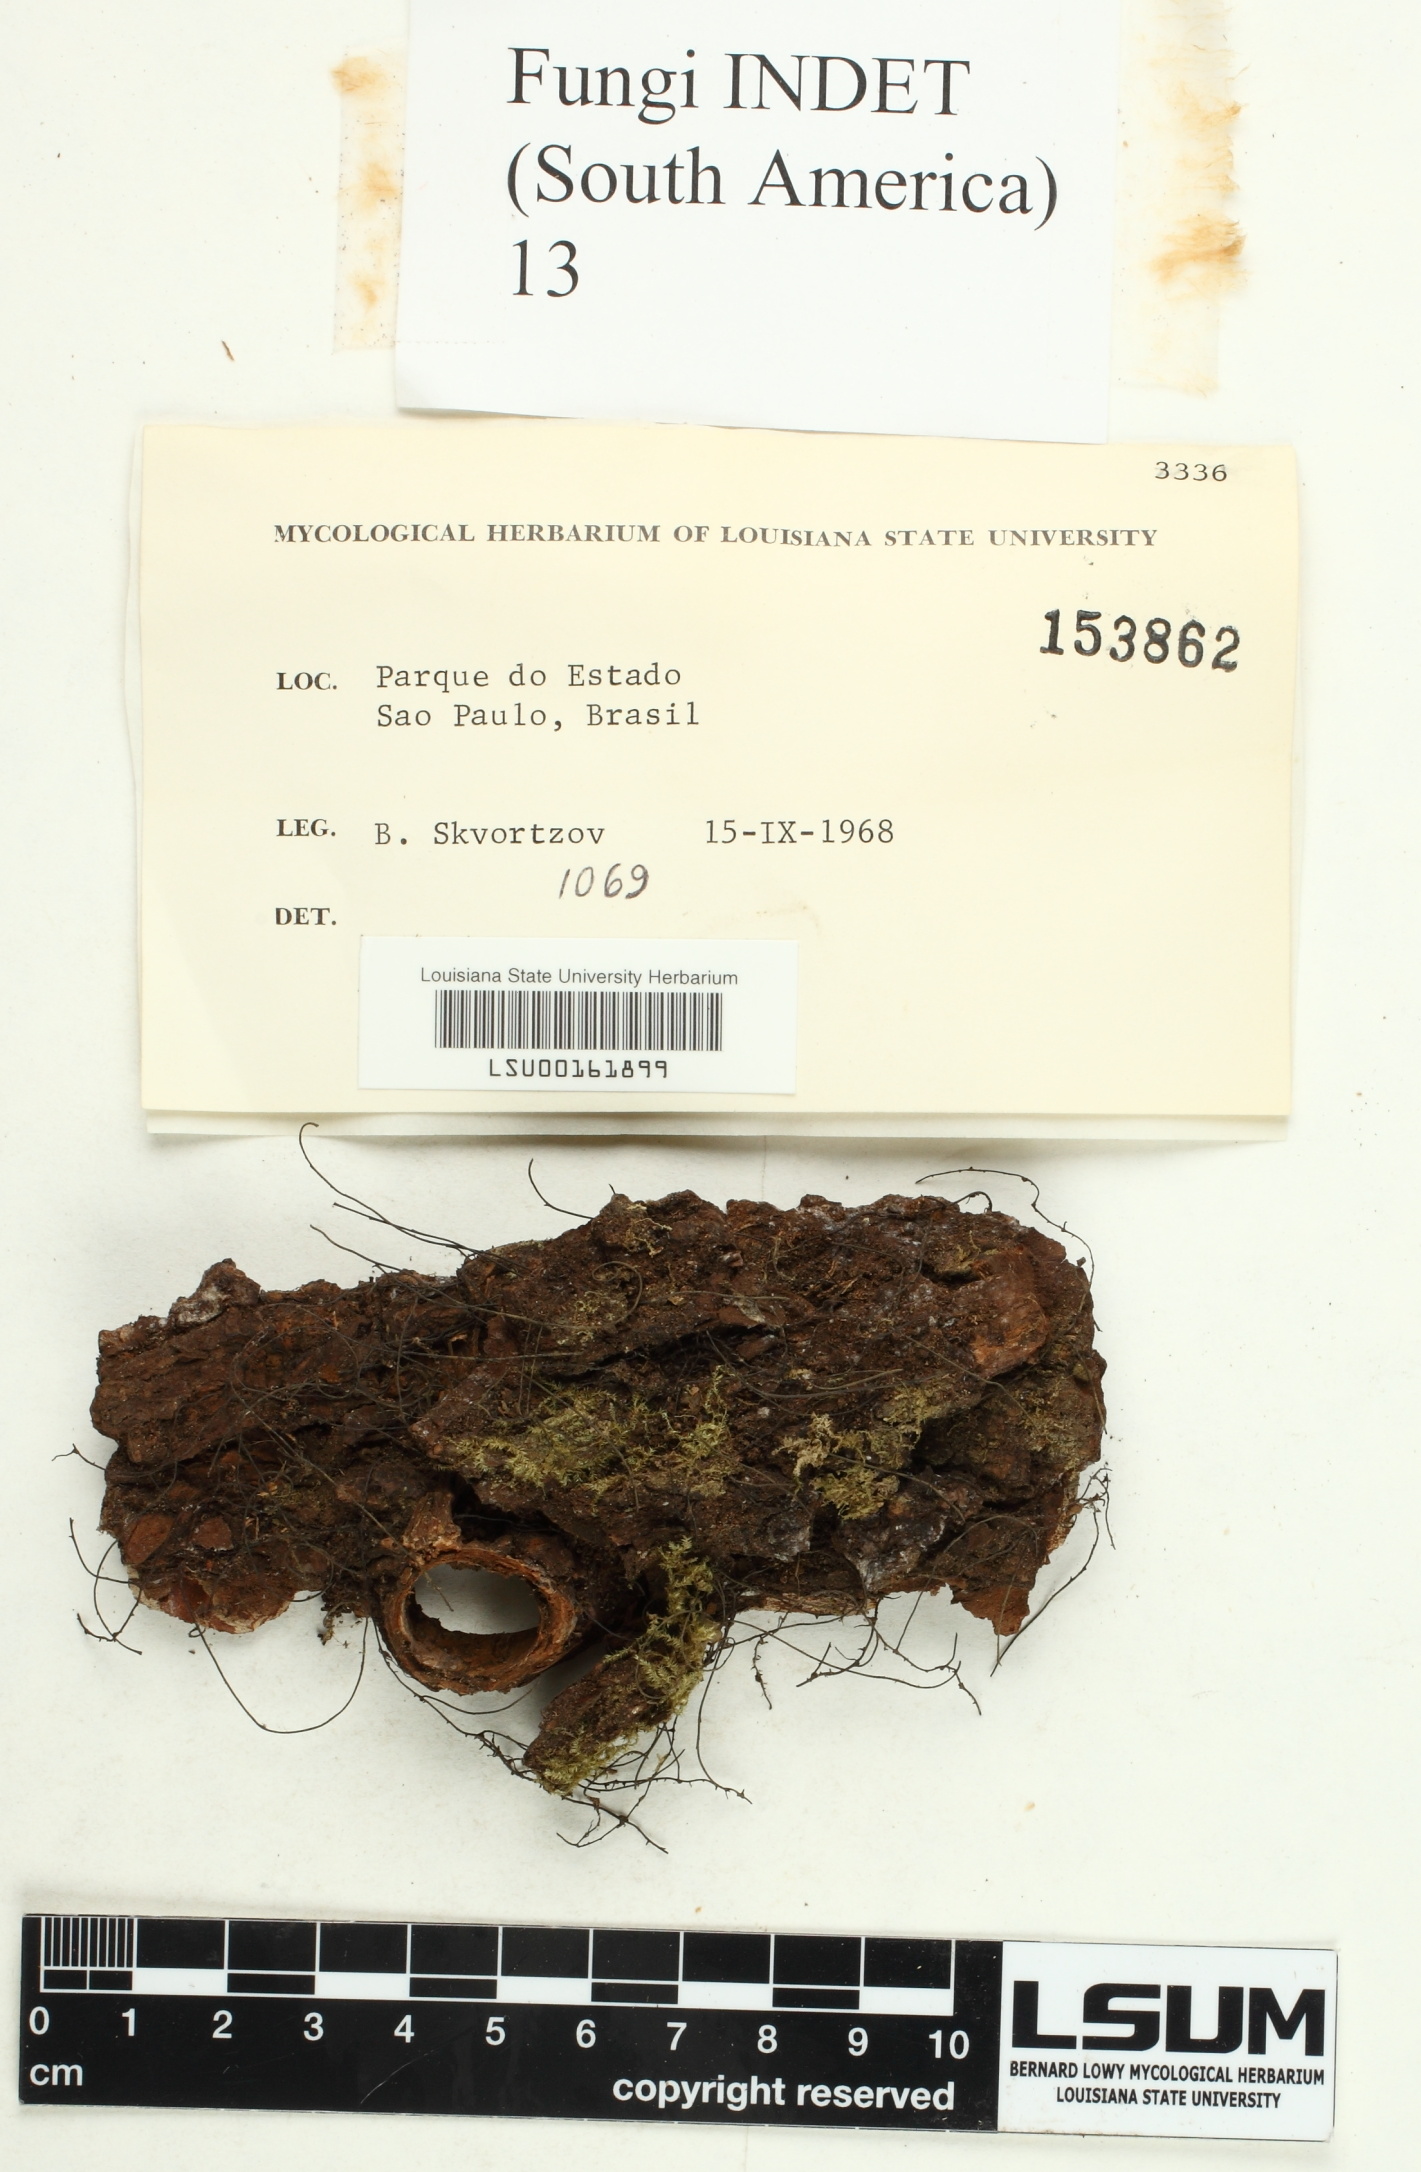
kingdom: Fungi
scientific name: Fungi
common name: Fungi
